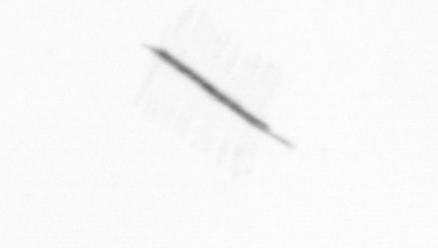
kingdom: Chromista
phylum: Ochrophyta
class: Bacillariophyceae
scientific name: Bacillariophyceae
